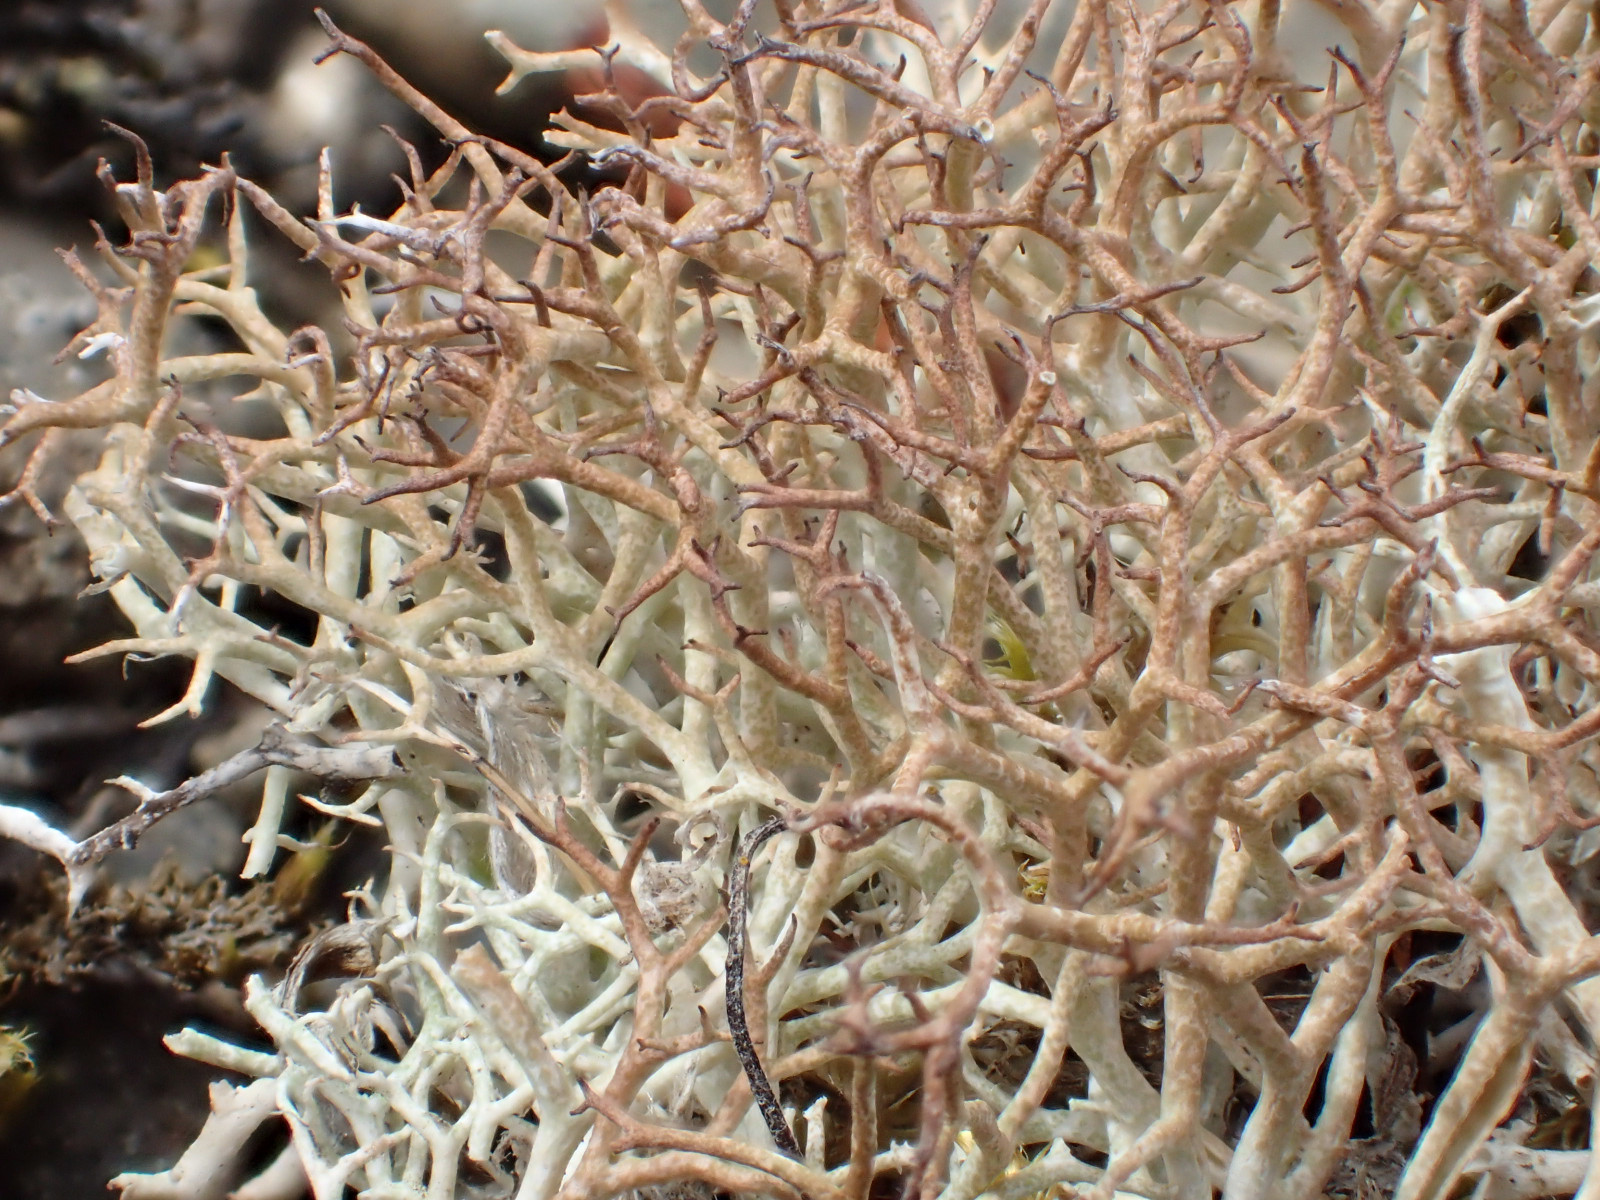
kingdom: Fungi
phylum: Ascomycota
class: Lecanoromycetes
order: Lecanorales
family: Cladoniaceae
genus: Cladonia
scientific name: Cladonia rangiformis
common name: spættet bægerlav
